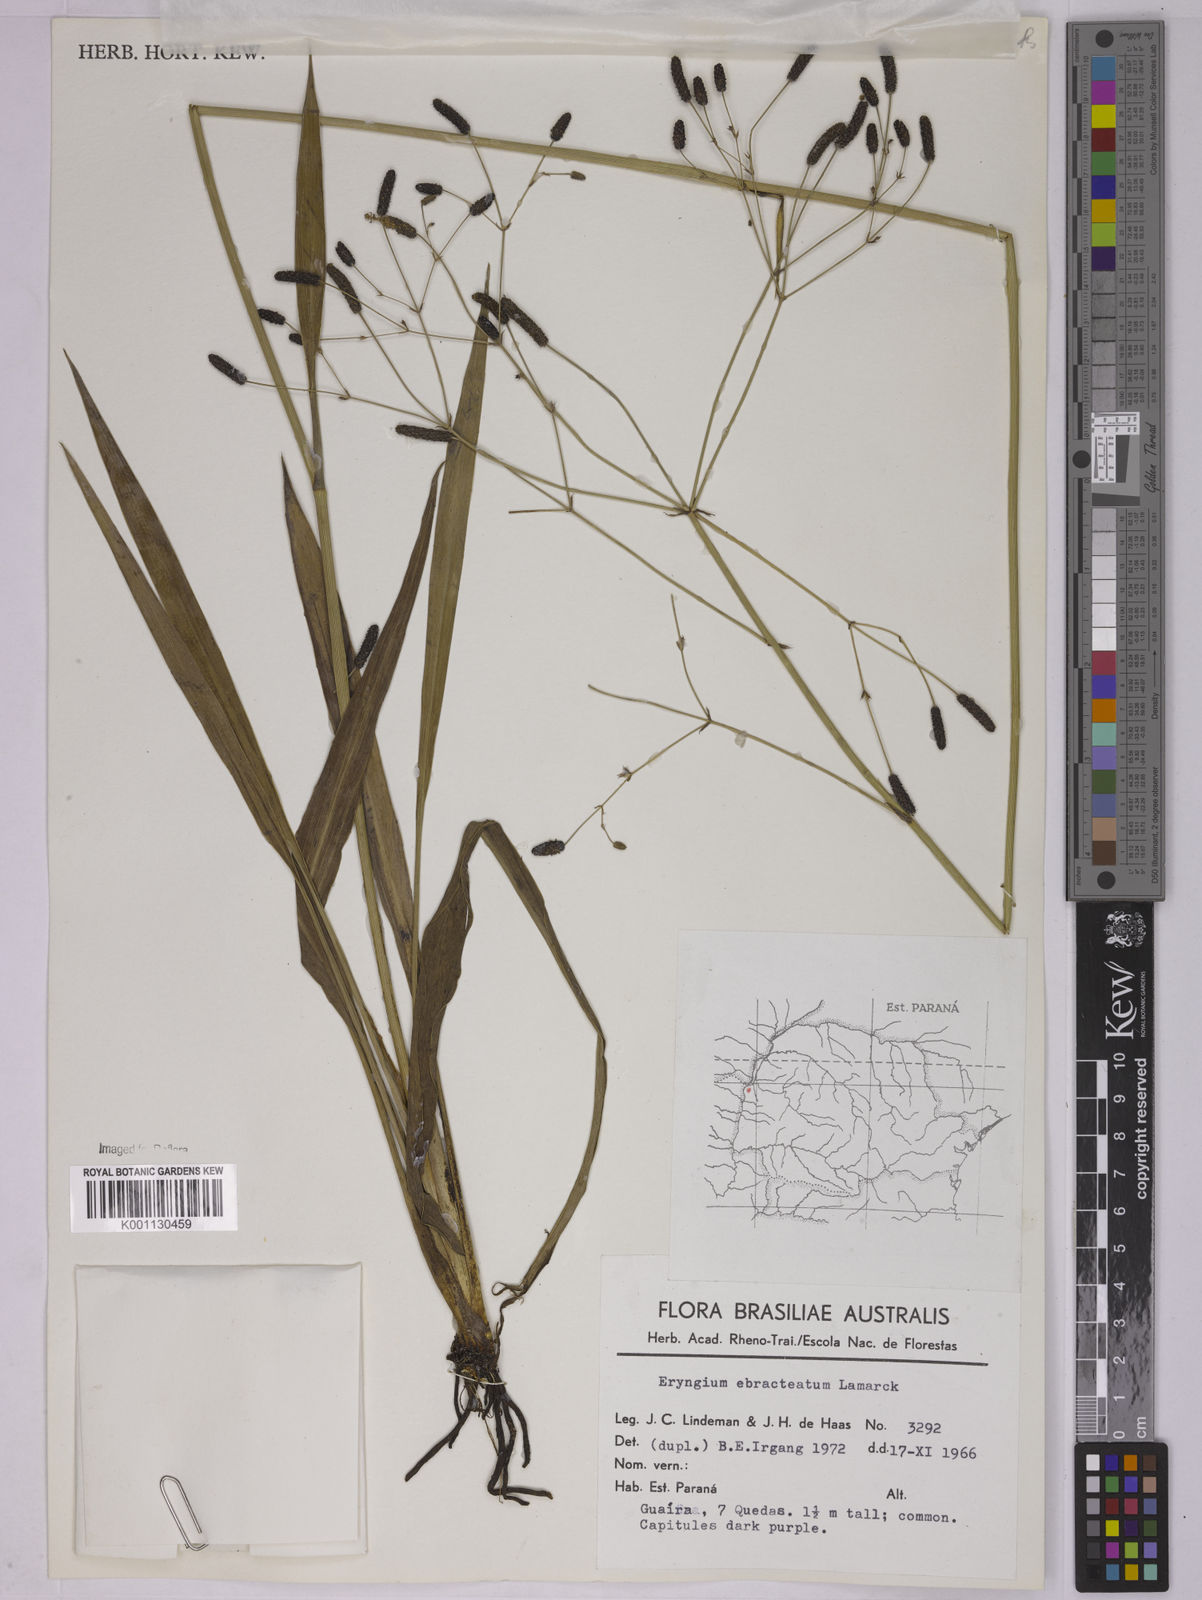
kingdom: Plantae
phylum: Tracheophyta
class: Magnoliopsida
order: Apiales
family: Apiaceae
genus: Eryngium
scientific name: Eryngium ebracteatum
